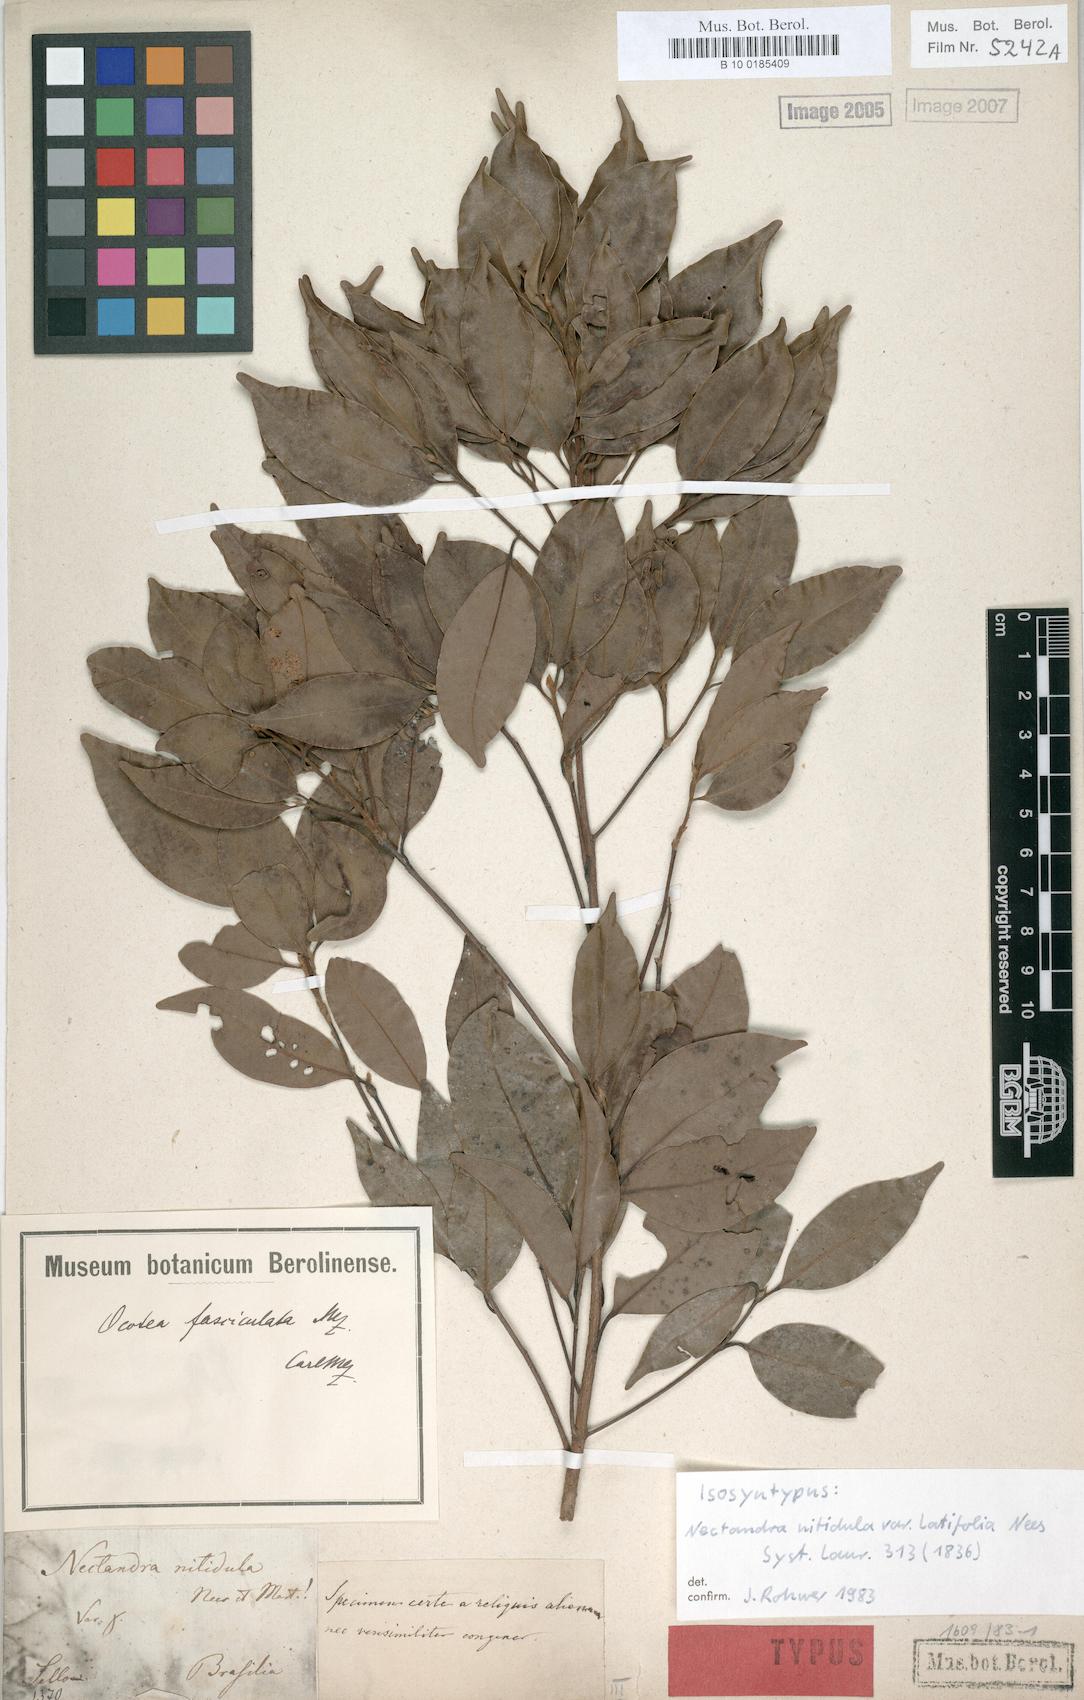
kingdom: Plantae
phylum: Tracheophyta
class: Magnoliopsida
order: Laurales
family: Lauraceae
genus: Mespilodaphne
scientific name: Mespilodaphne fasciculata
